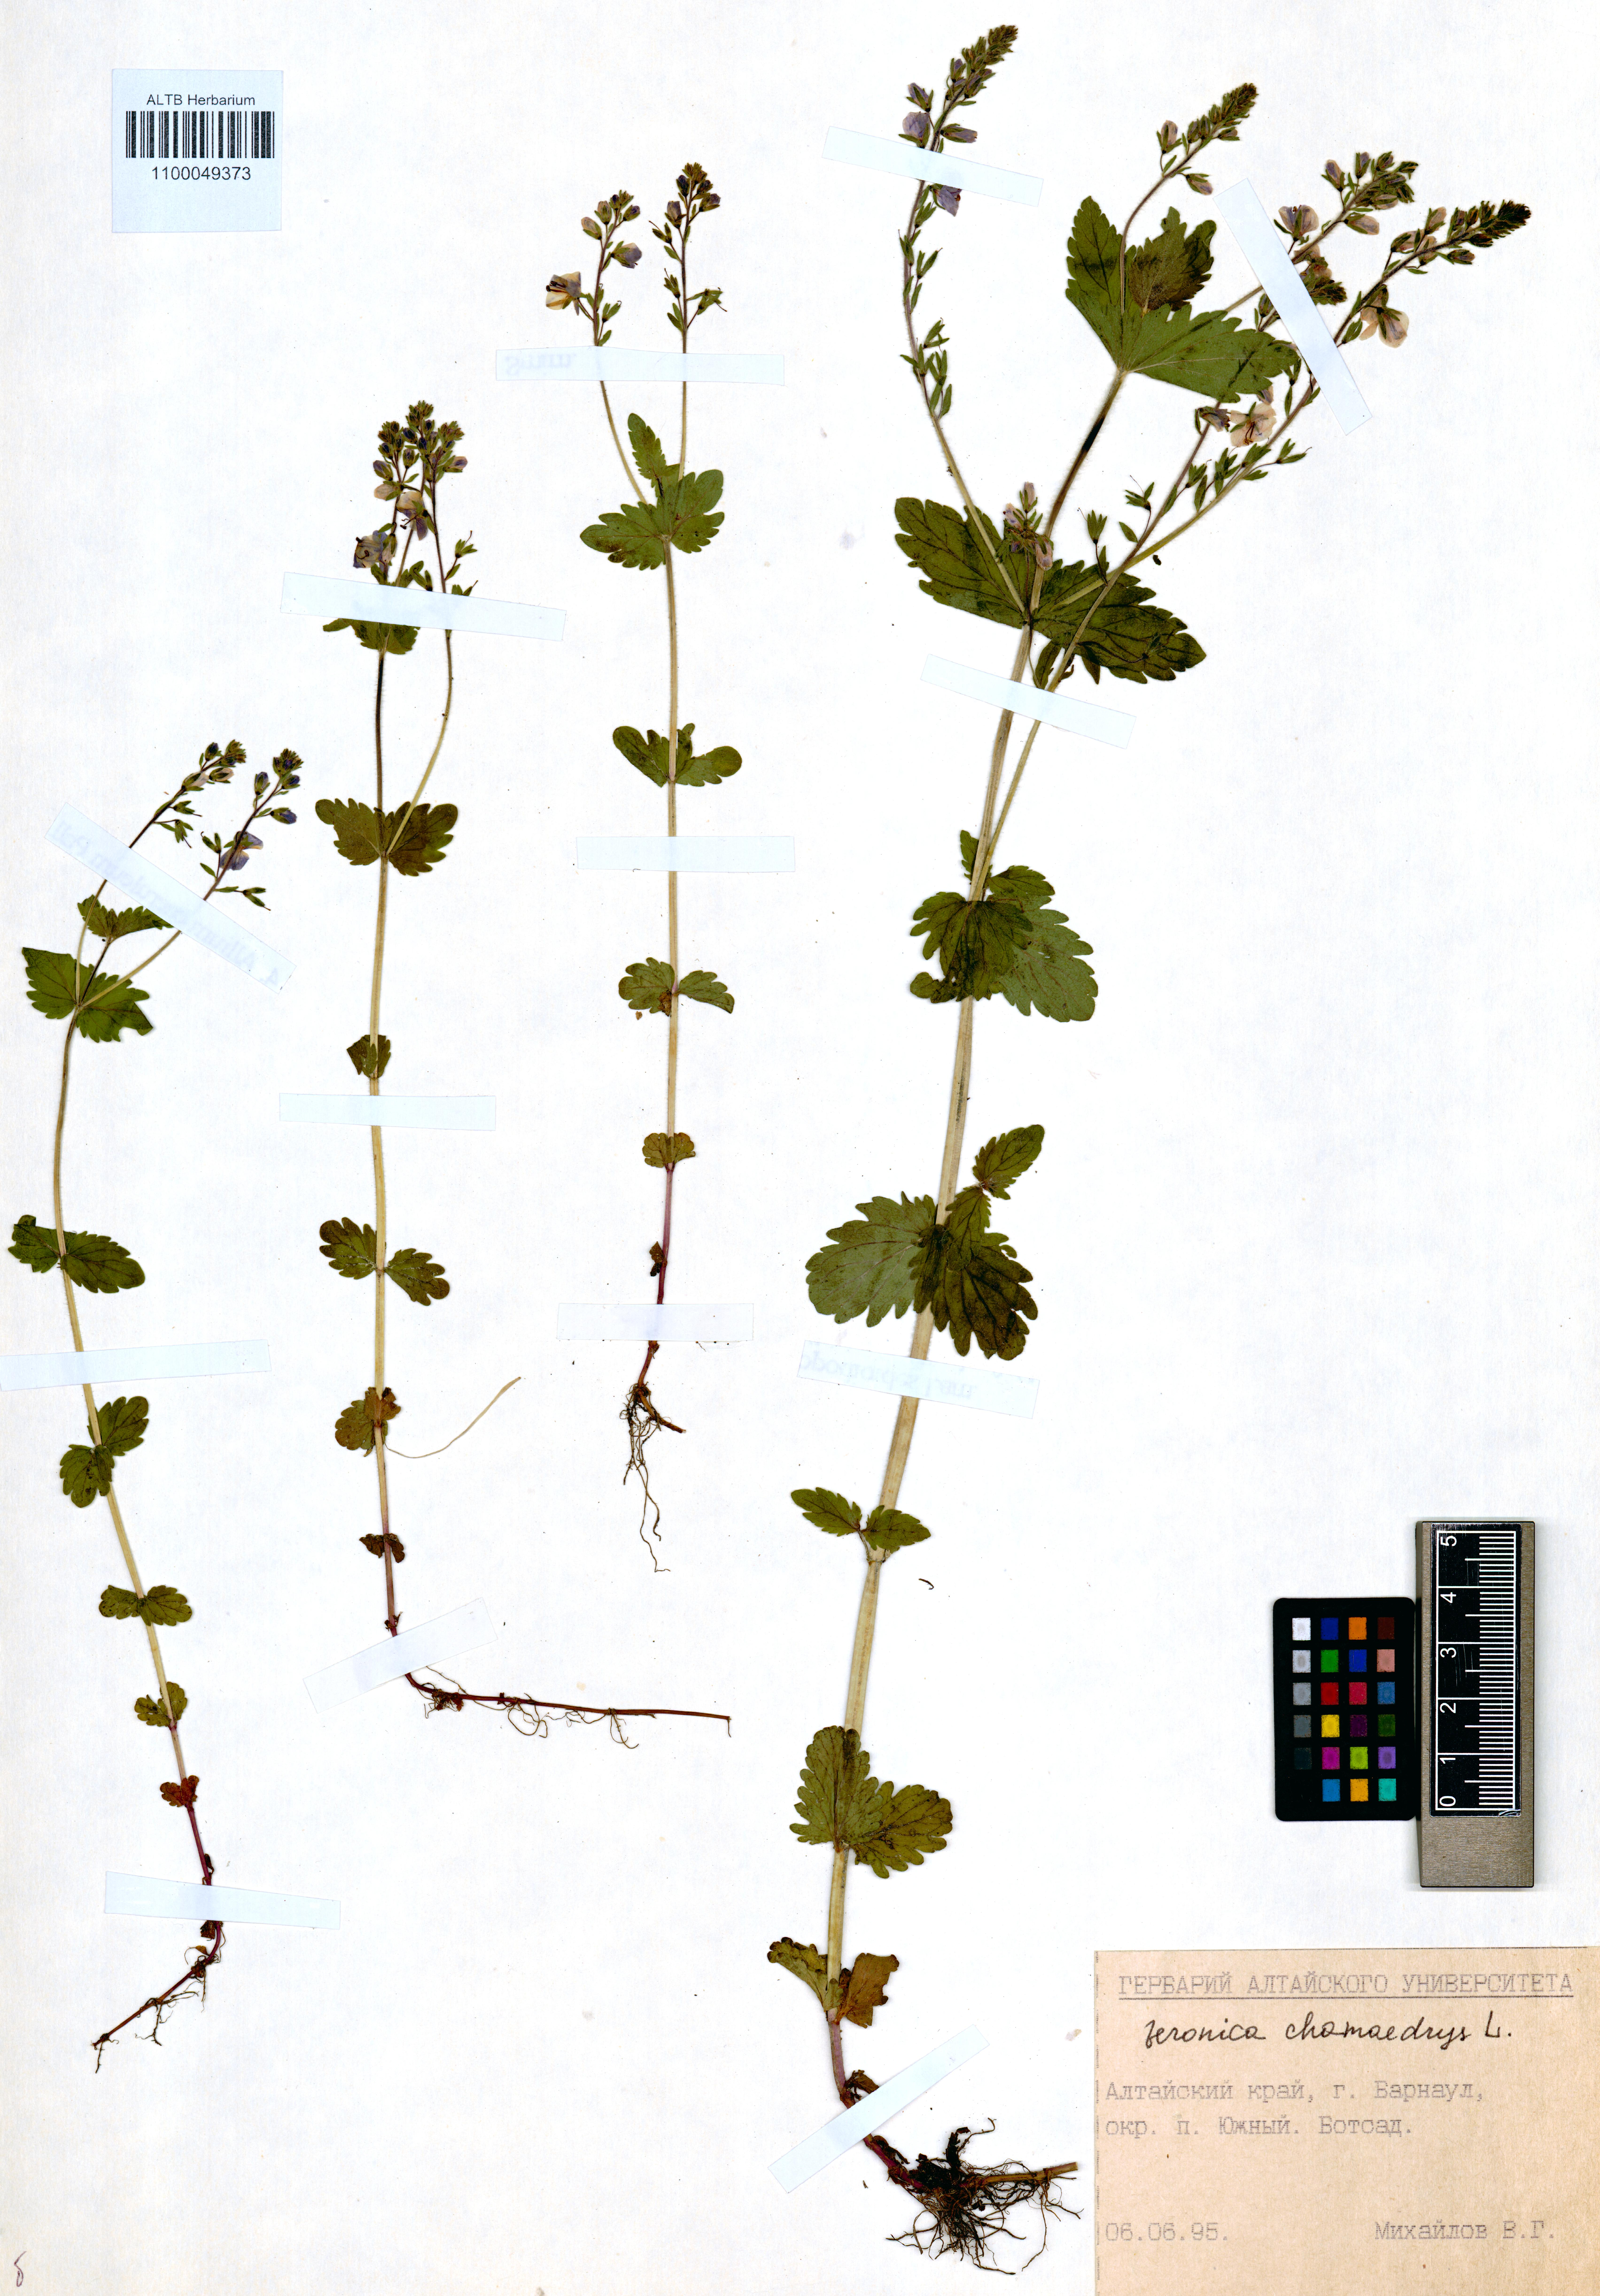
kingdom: Plantae
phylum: Tracheophyta
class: Magnoliopsida
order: Lamiales
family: Plantaginaceae
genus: Veronica
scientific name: Veronica chamaedrys
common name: Germander speedwell
